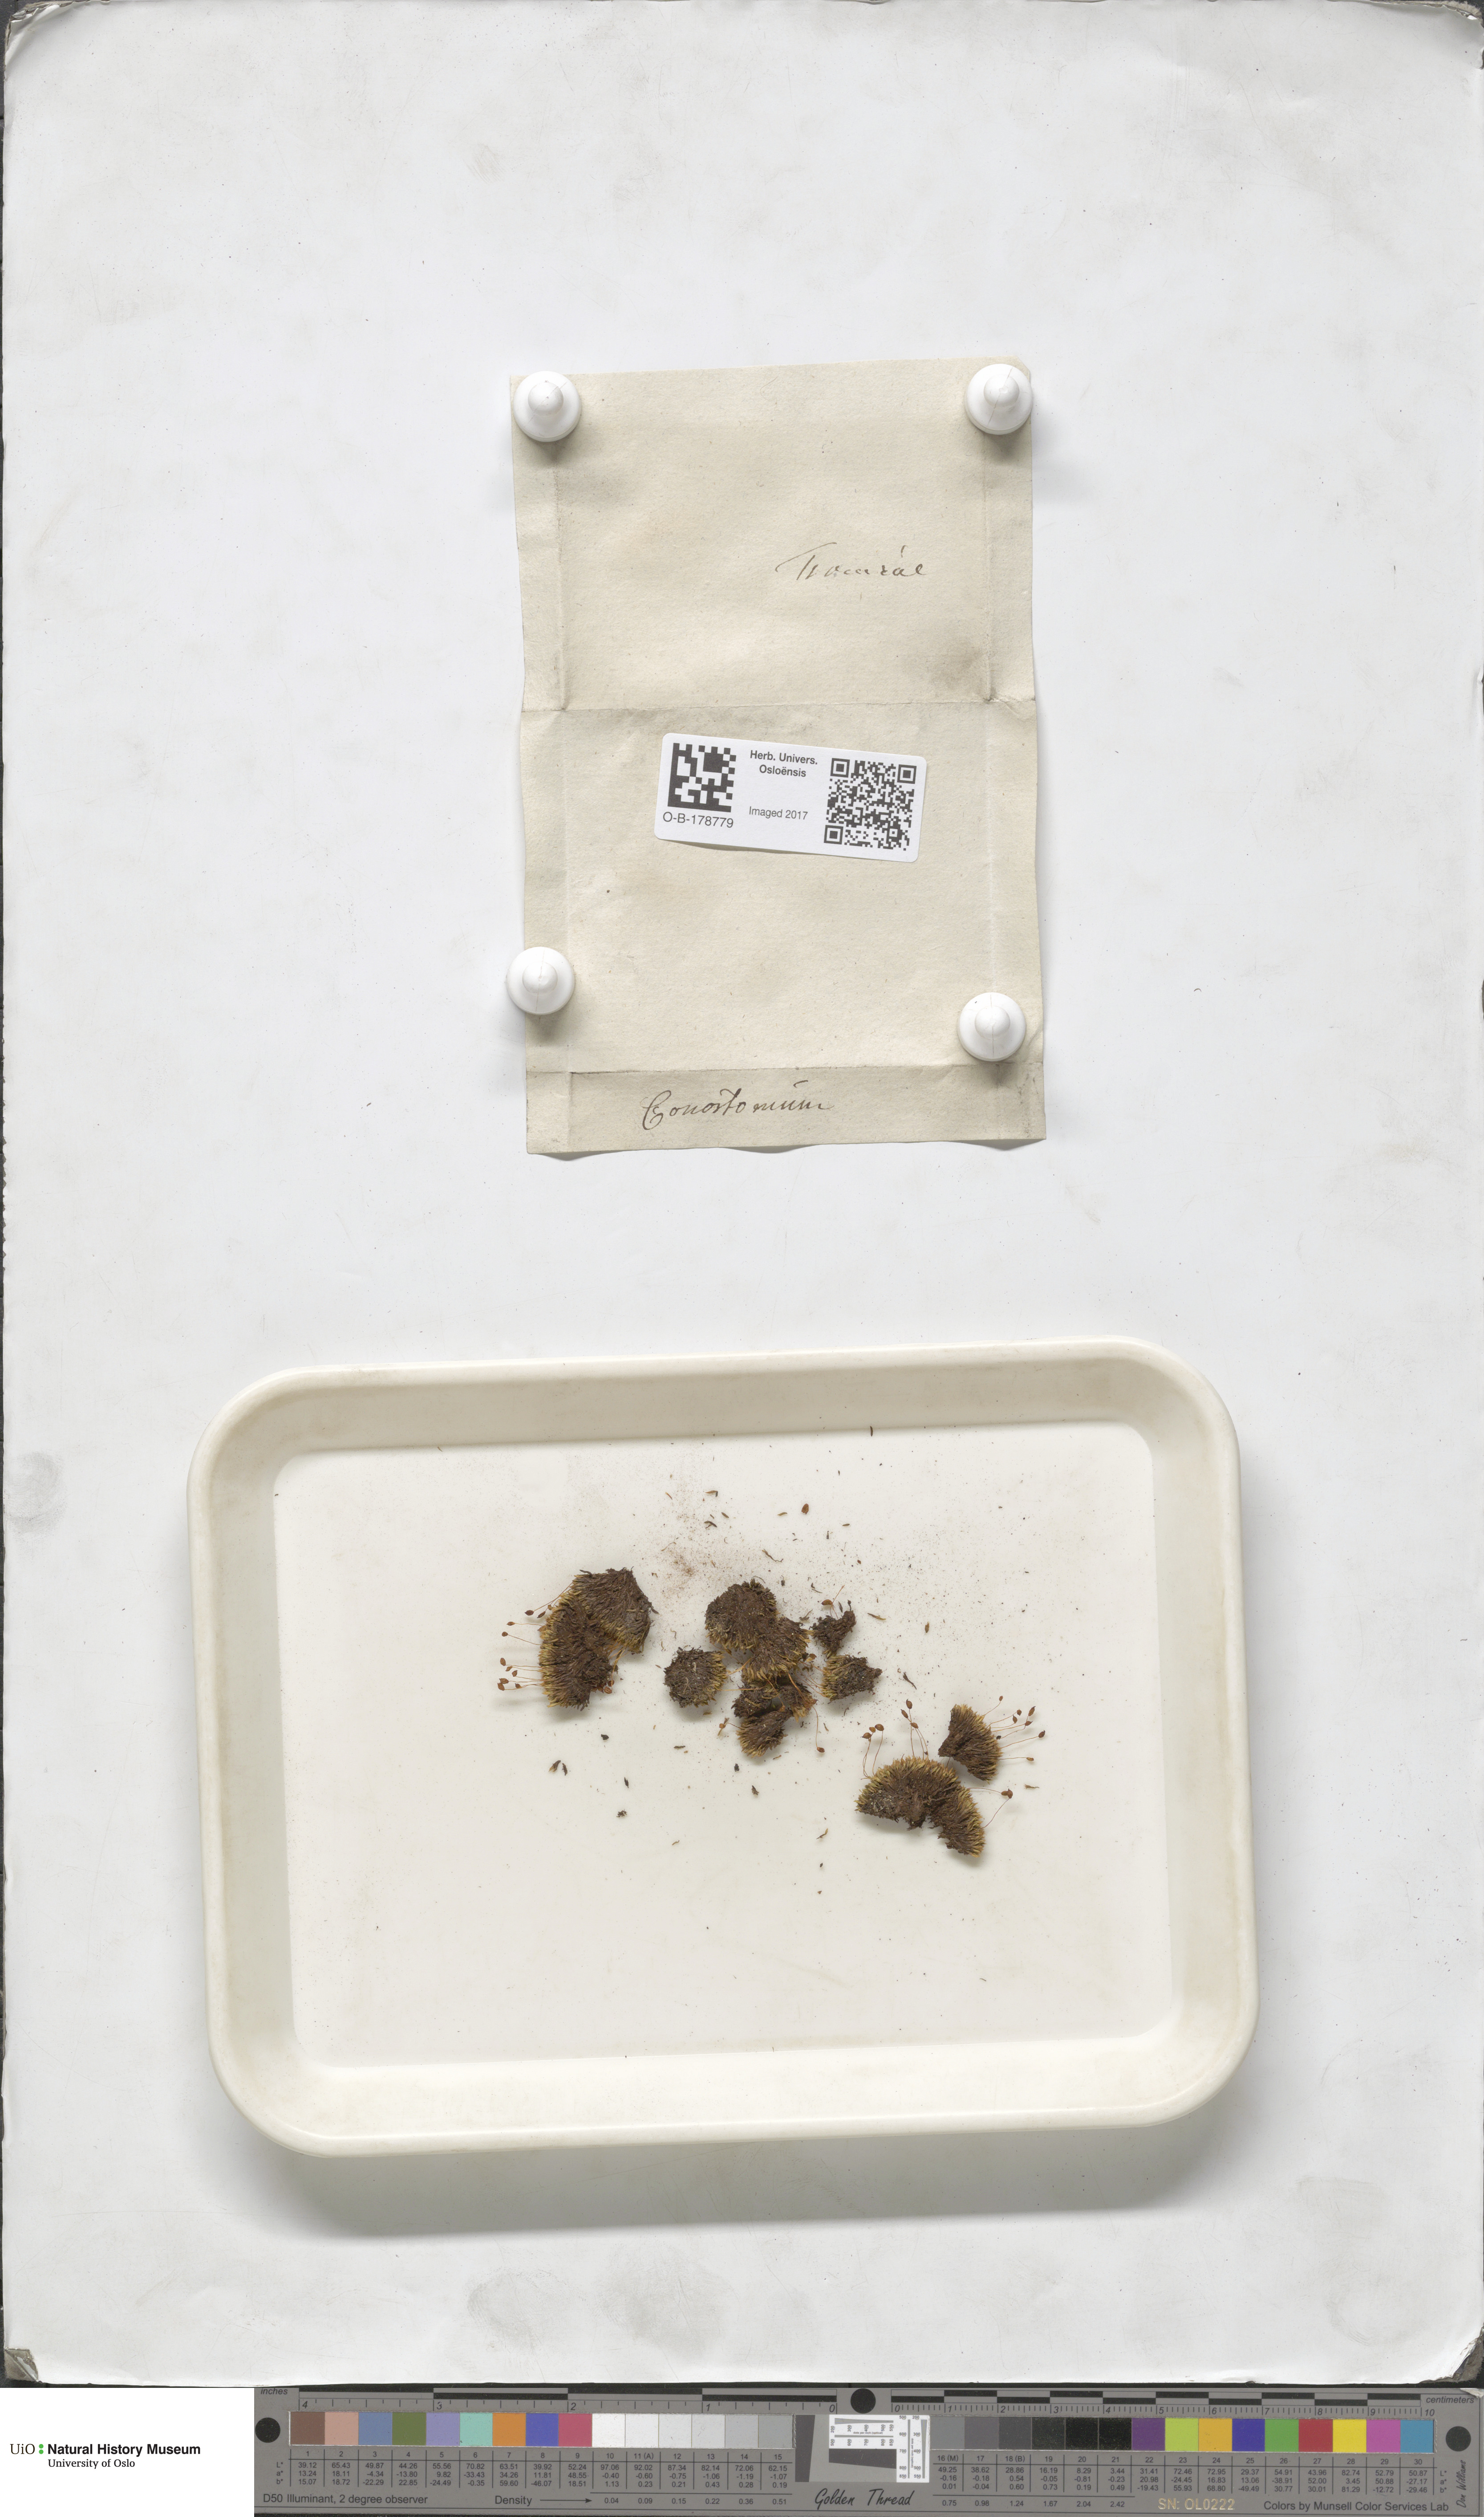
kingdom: Plantae
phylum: Bryophyta
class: Bryopsida
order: Bartramiales
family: Bartramiaceae
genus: Conostomum
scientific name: Conostomum tetragonum
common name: Helmet moss
